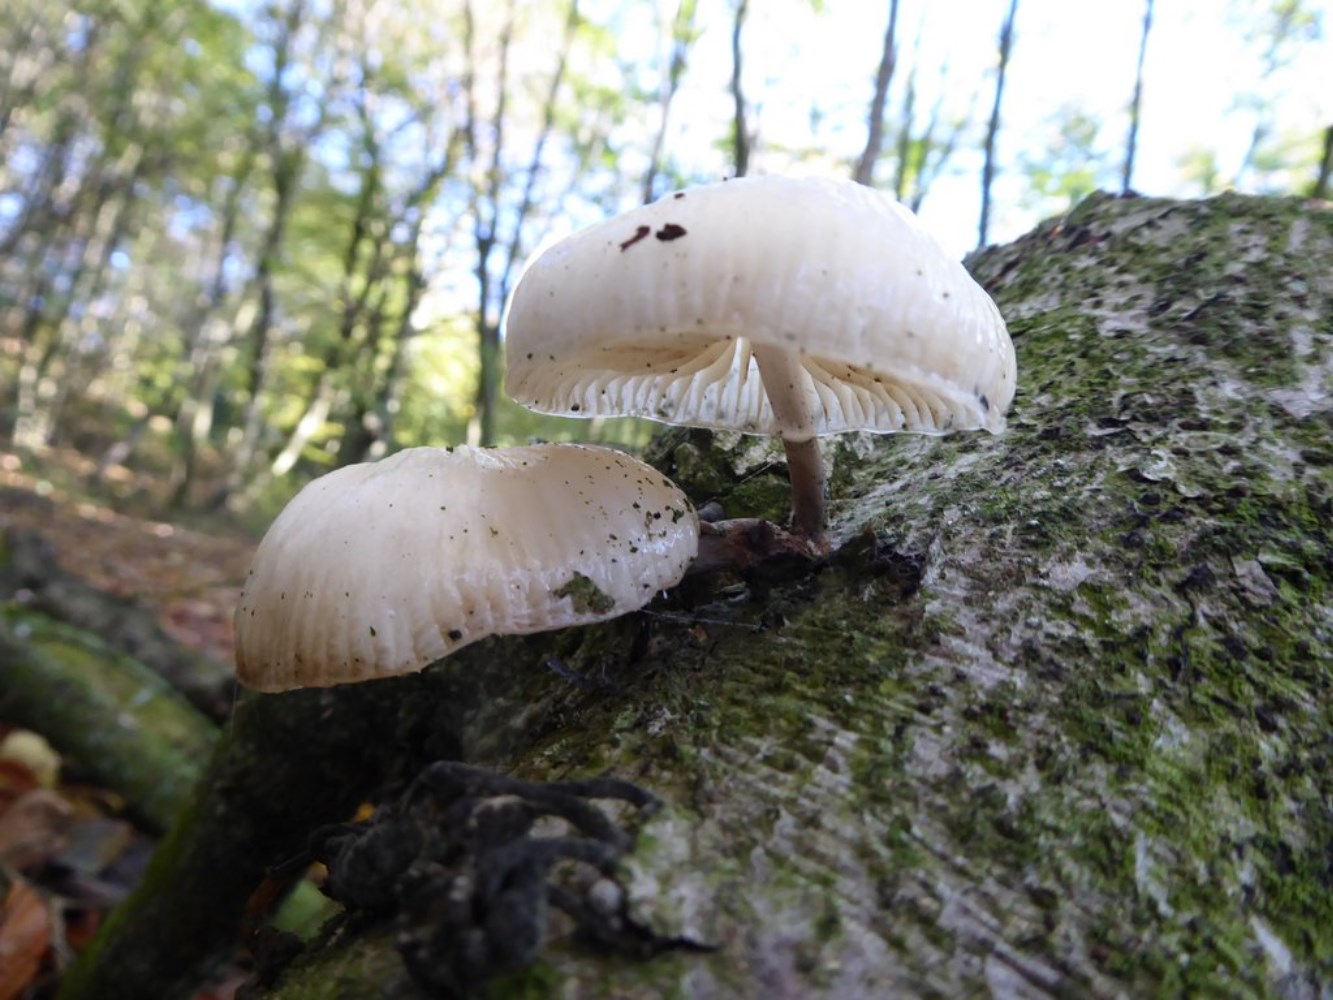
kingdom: Fungi
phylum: Basidiomycota
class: Agaricomycetes
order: Agaricales
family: Physalacriaceae
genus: Mucidula
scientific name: Mucidula mucida
